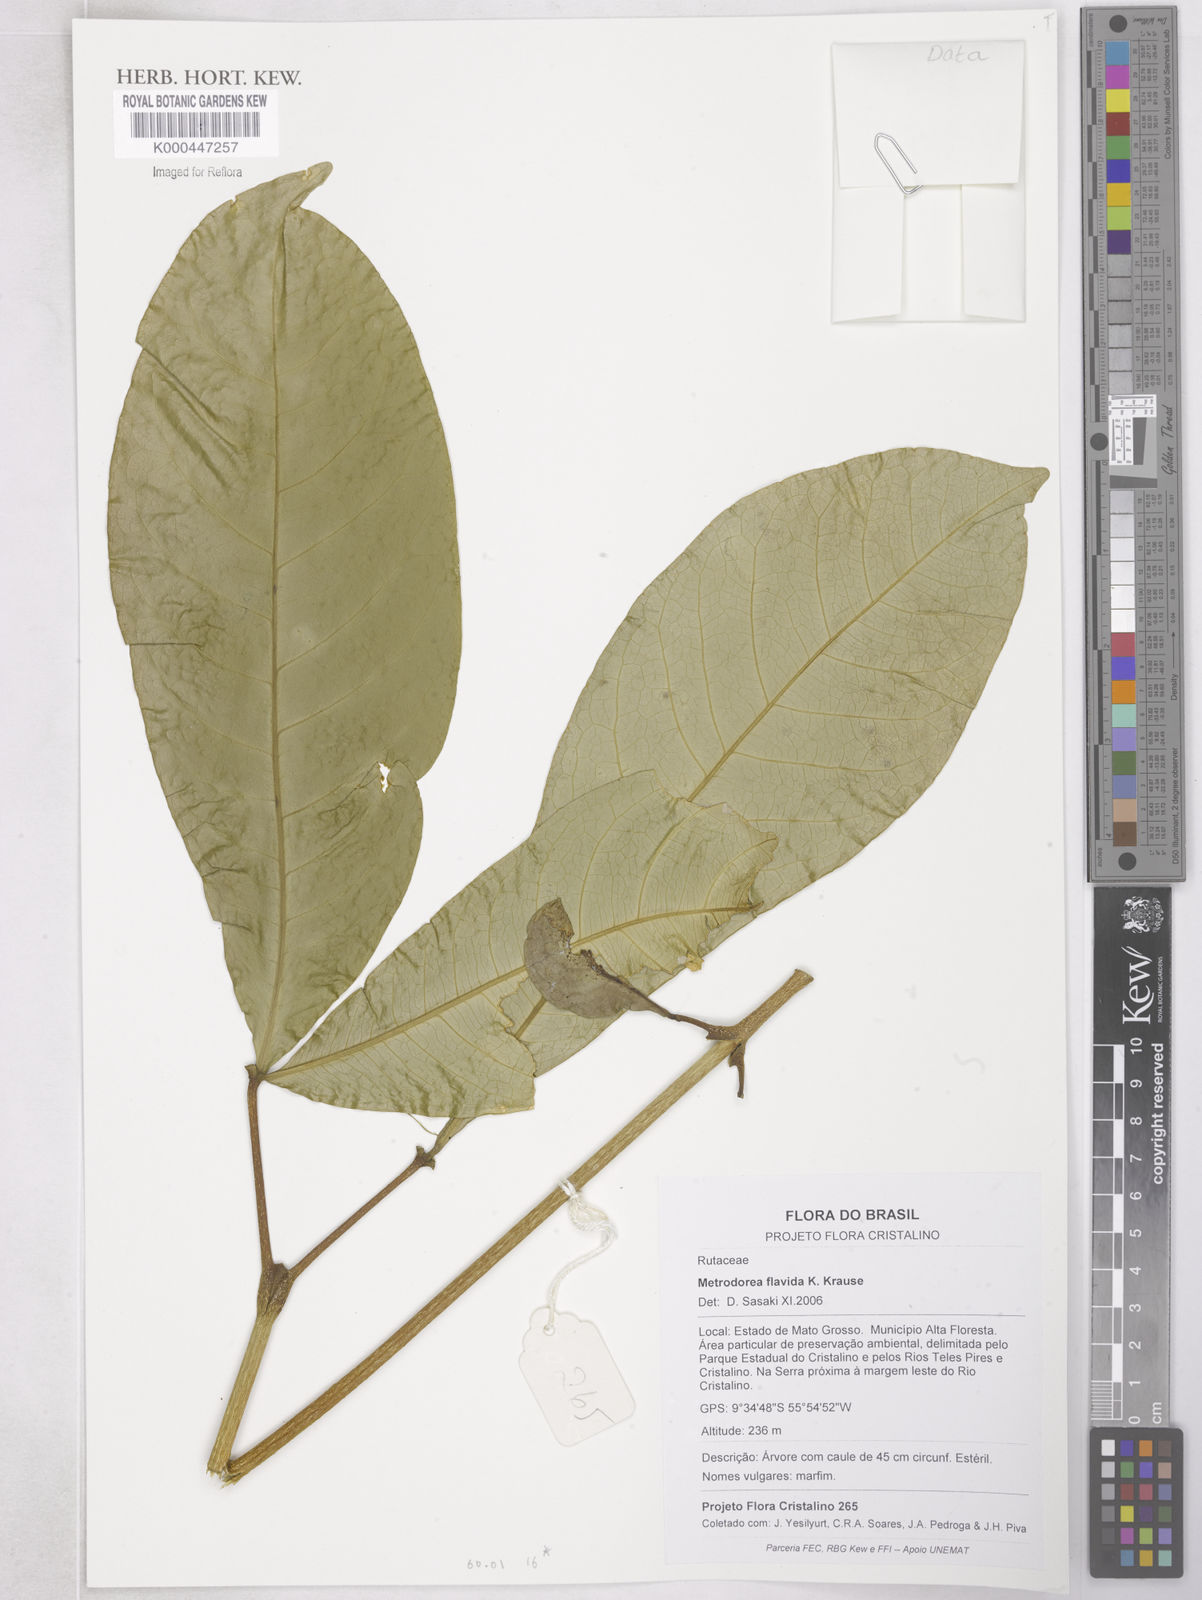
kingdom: Plantae
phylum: Tracheophyta
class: Magnoliopsida
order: Sapindales
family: Rutaceae
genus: Metrodorea
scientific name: Metrodorea flavida
